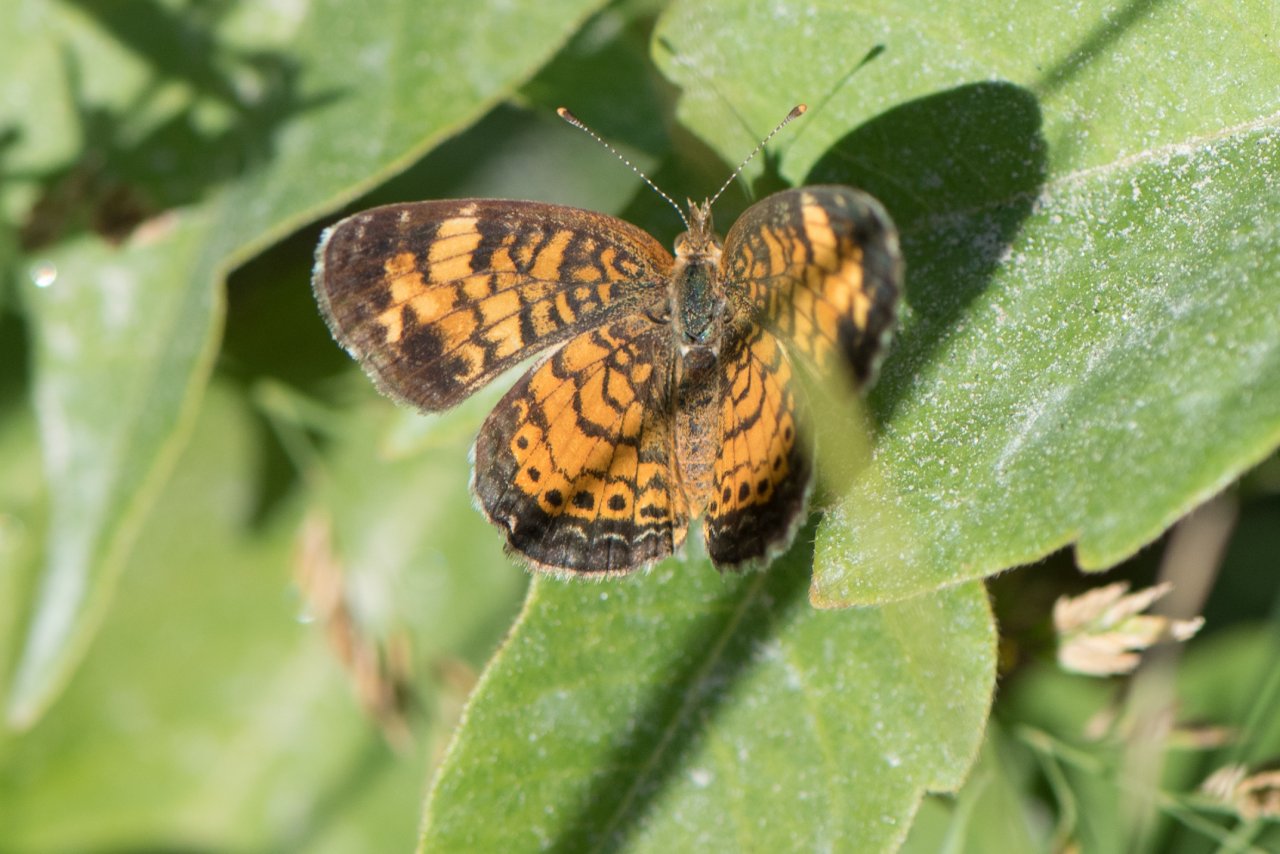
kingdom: Animalia
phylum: Arthropoda
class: Insecta
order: Lepidoptera
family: Nymphalidae
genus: Phyciodes
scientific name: Phyciodes tharos
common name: Northern Crescent
